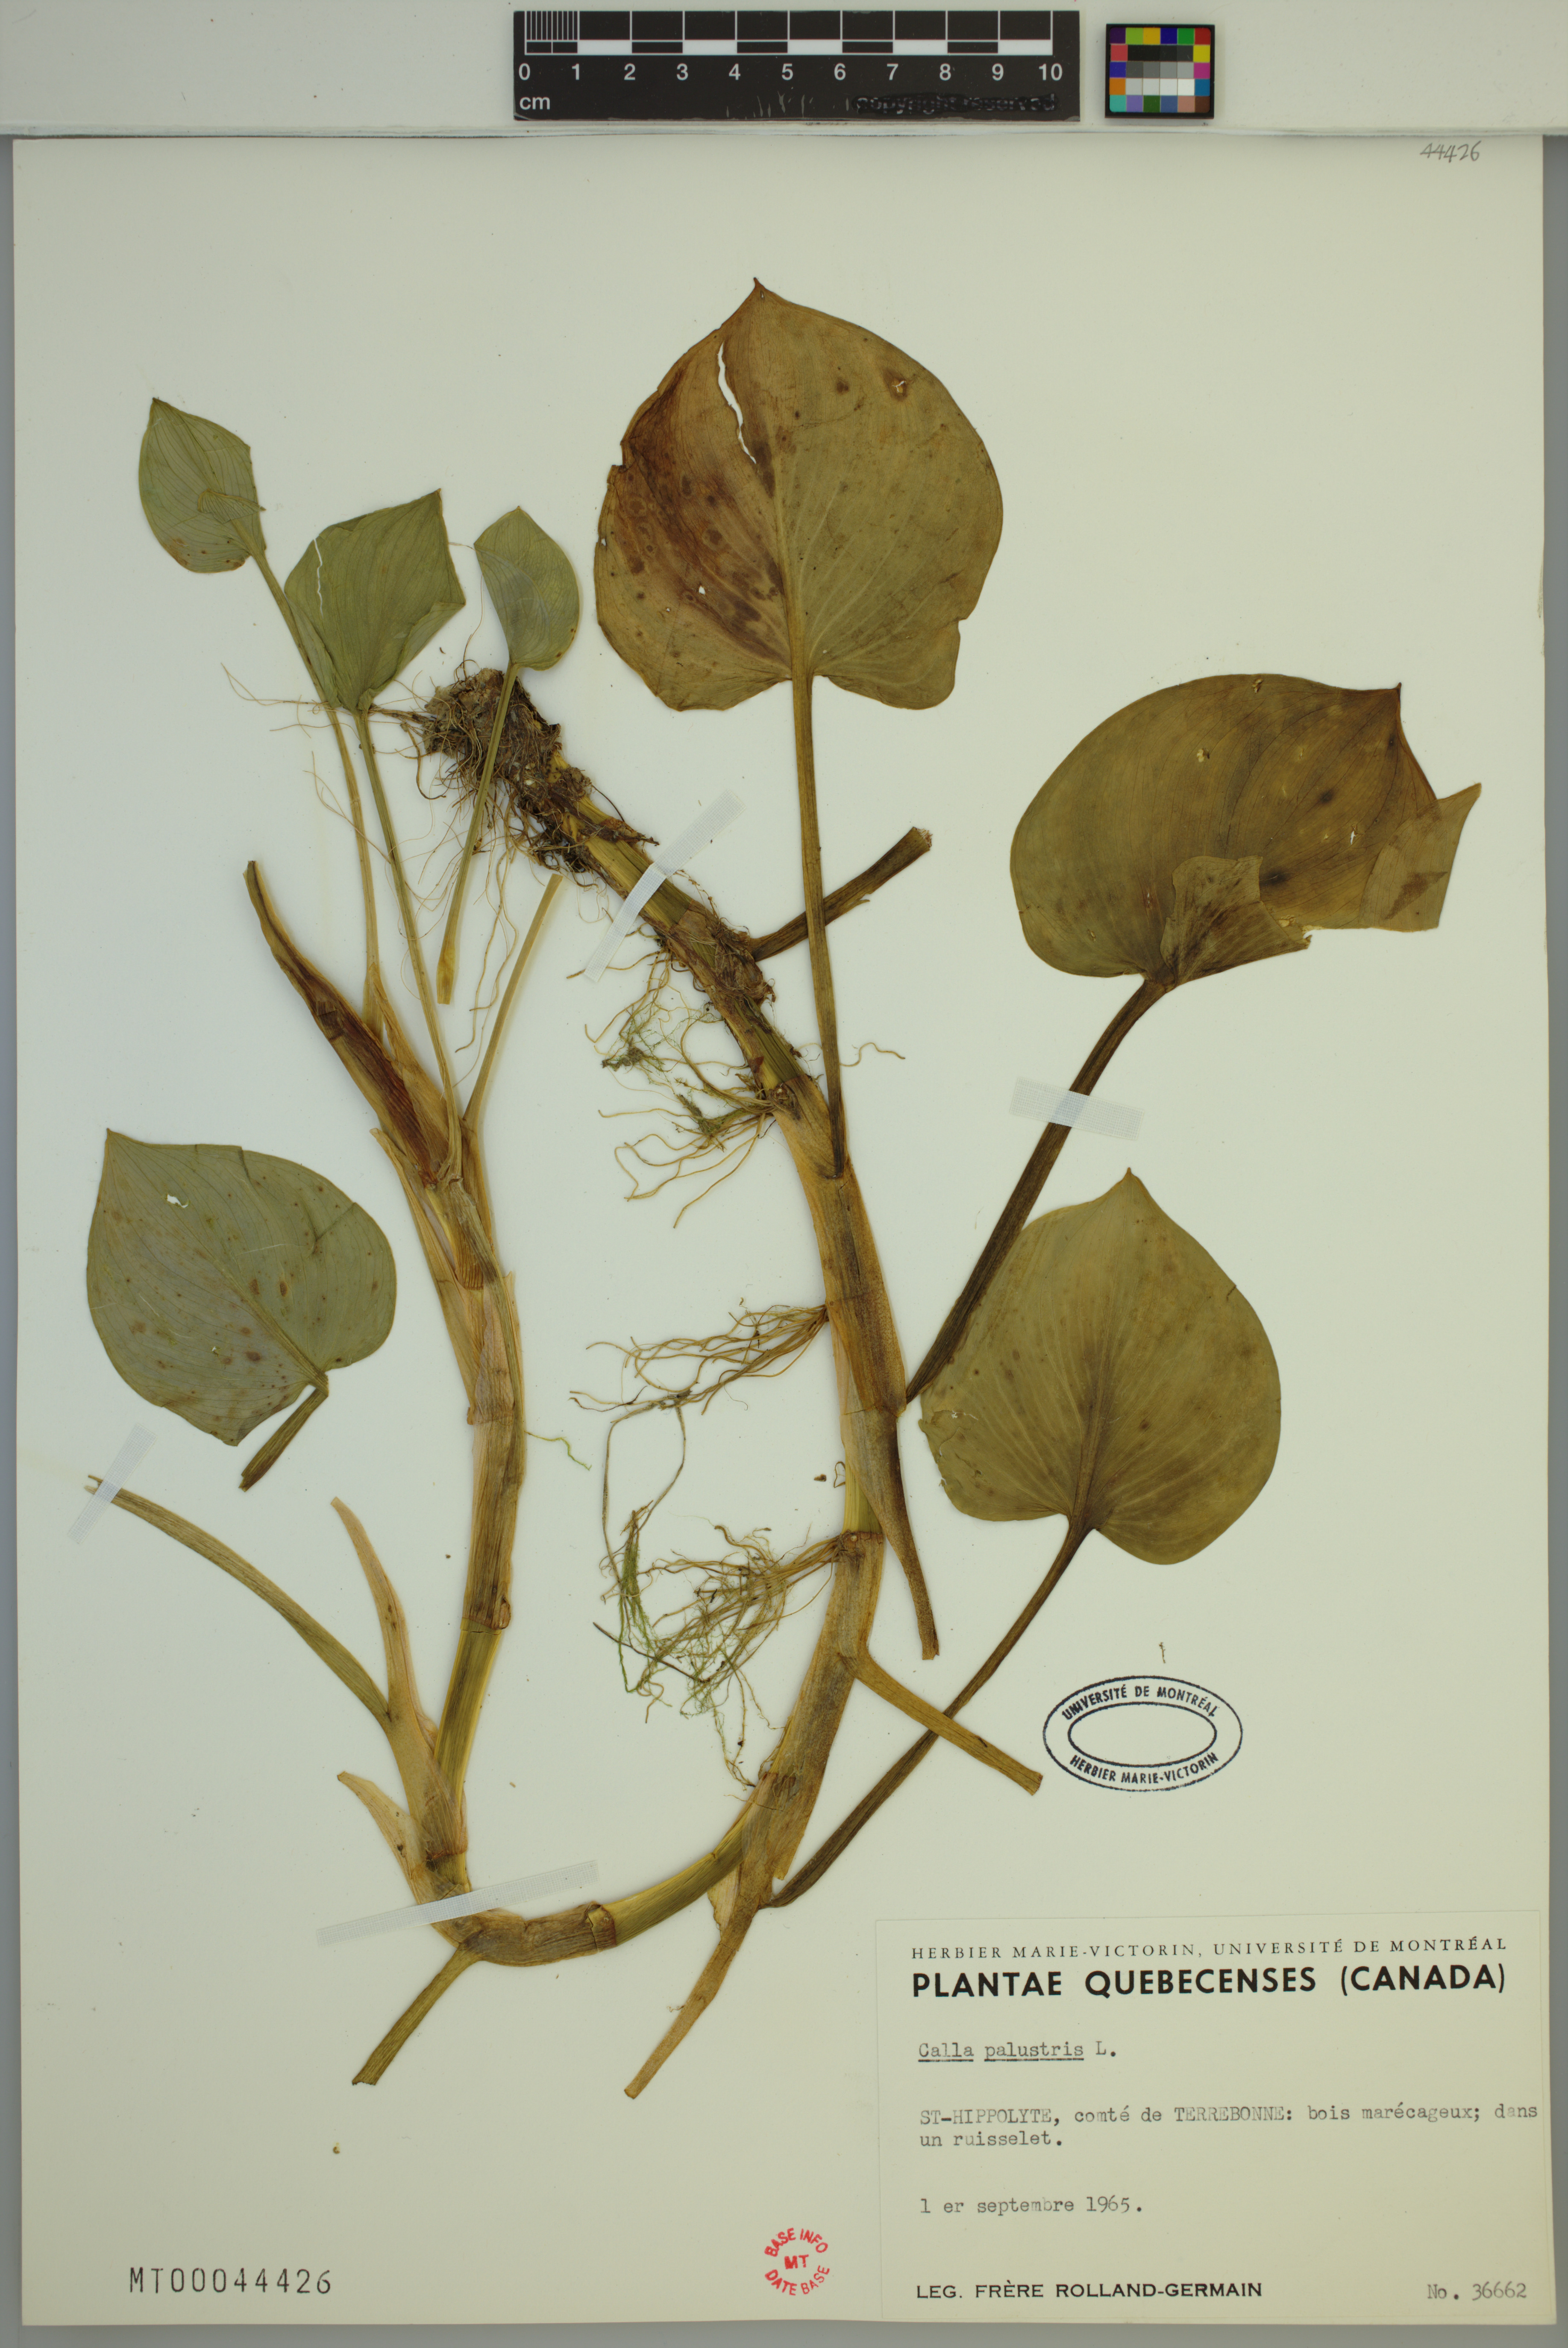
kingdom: Plantae
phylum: Tracheophyta
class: Liliopsida
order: Alismatales
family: Araceae
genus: Calla
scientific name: Calla palustris
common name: Bog arum
